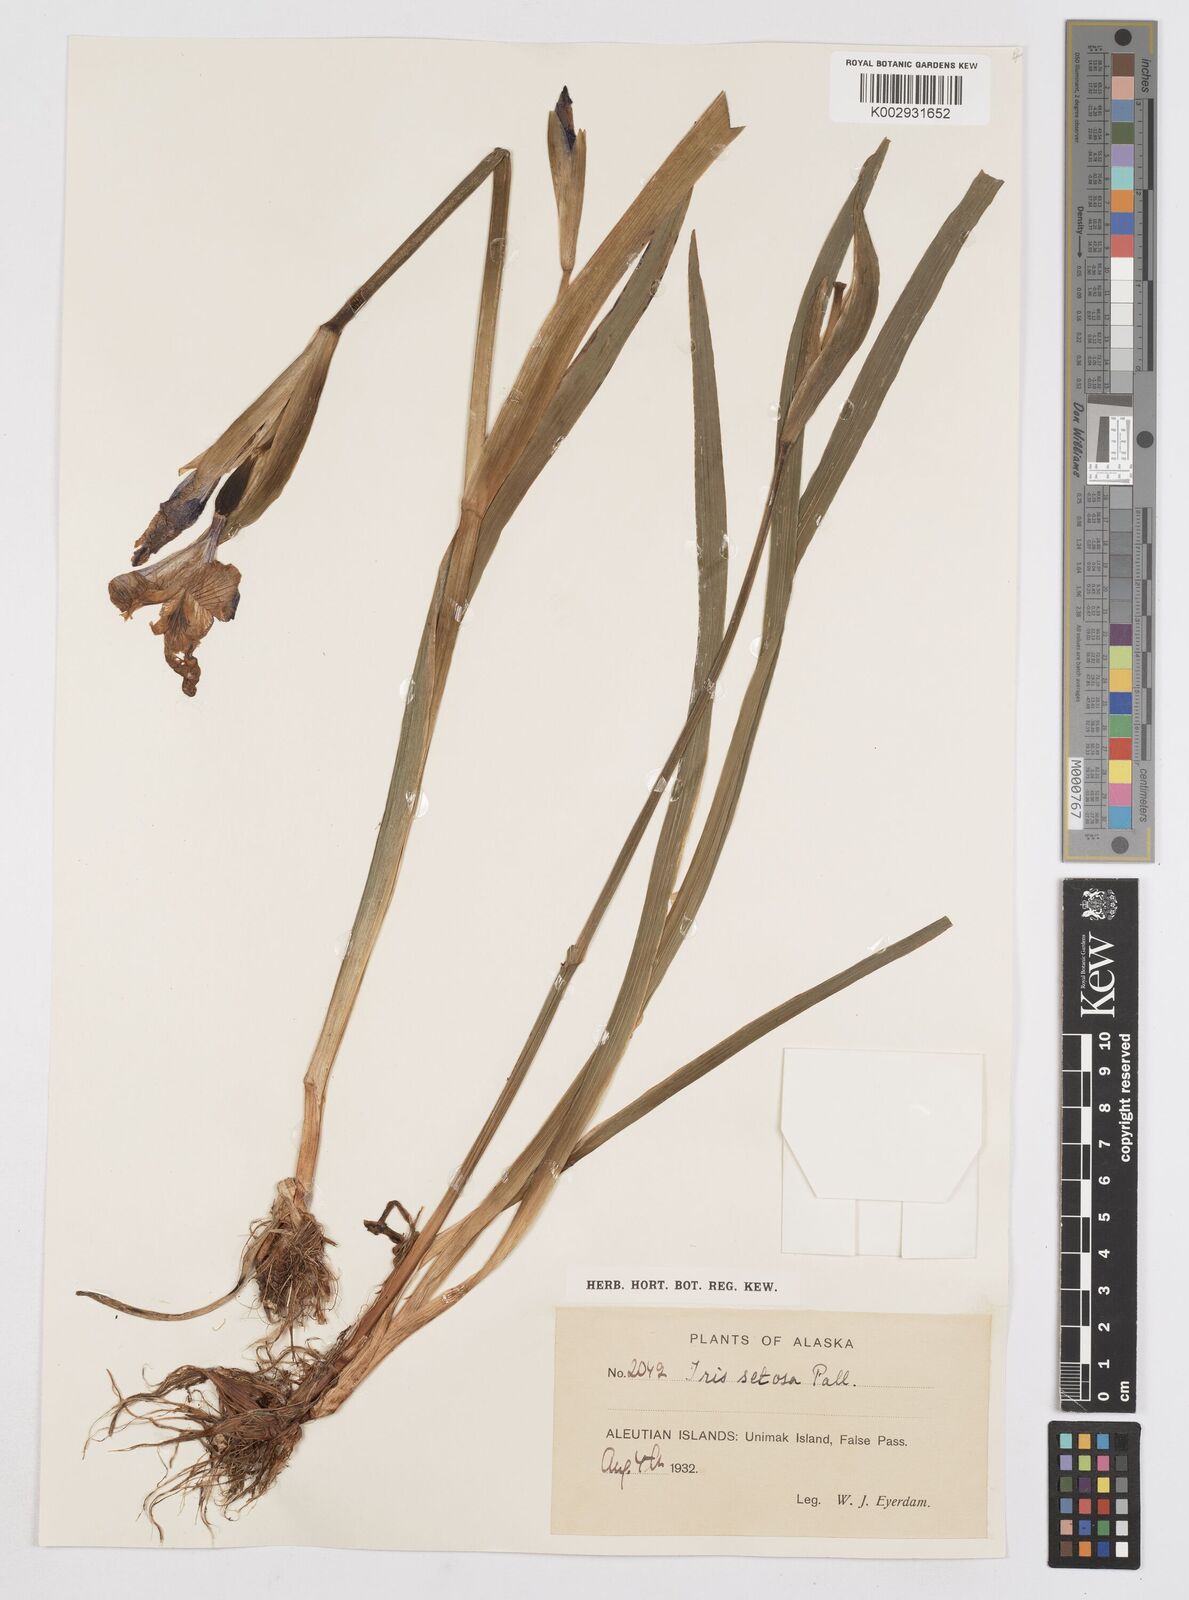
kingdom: Plantae
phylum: Tracheophyta
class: Liliopsida
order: Asparagales
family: Iridaceae
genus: Iris
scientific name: Iris setosa
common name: Arctic blue flag
